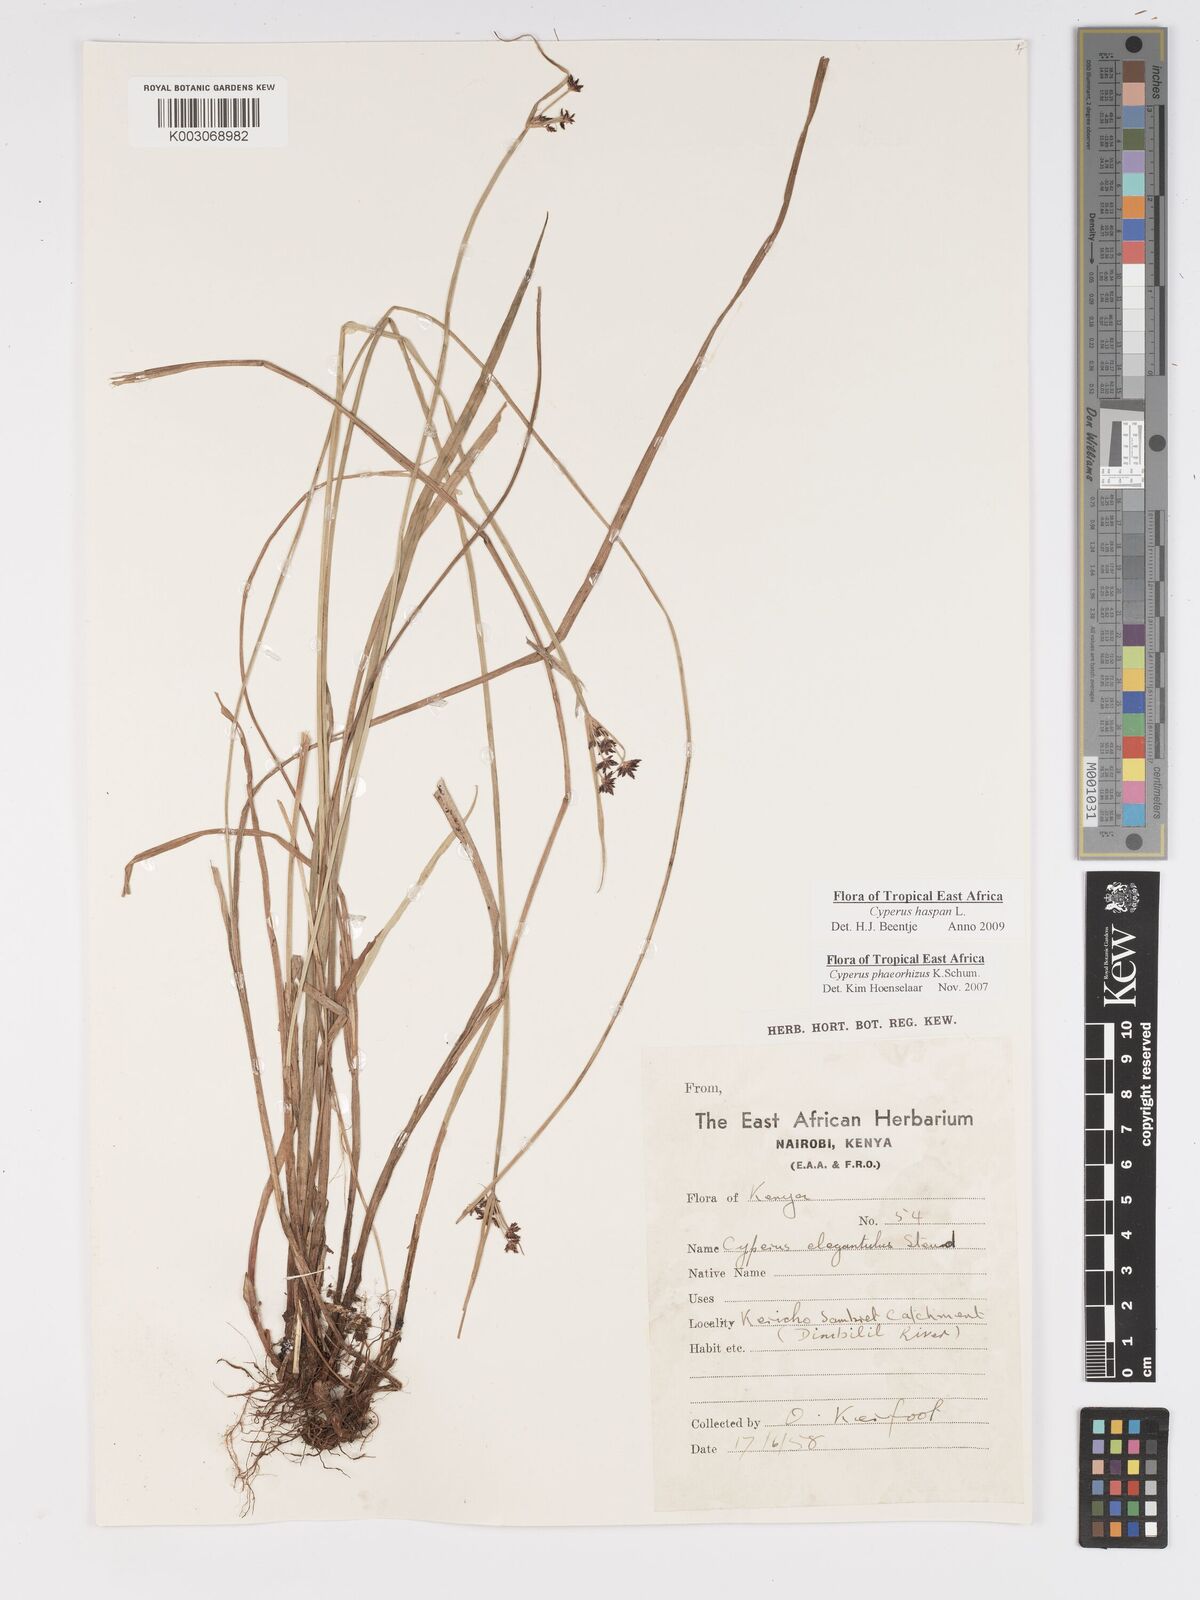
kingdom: Plantae
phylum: Tracheophyta
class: Liliopsida
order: Poales
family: Cyperaceae
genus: Cyperus
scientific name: Cyperus haspan
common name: Haspan flatsedge
